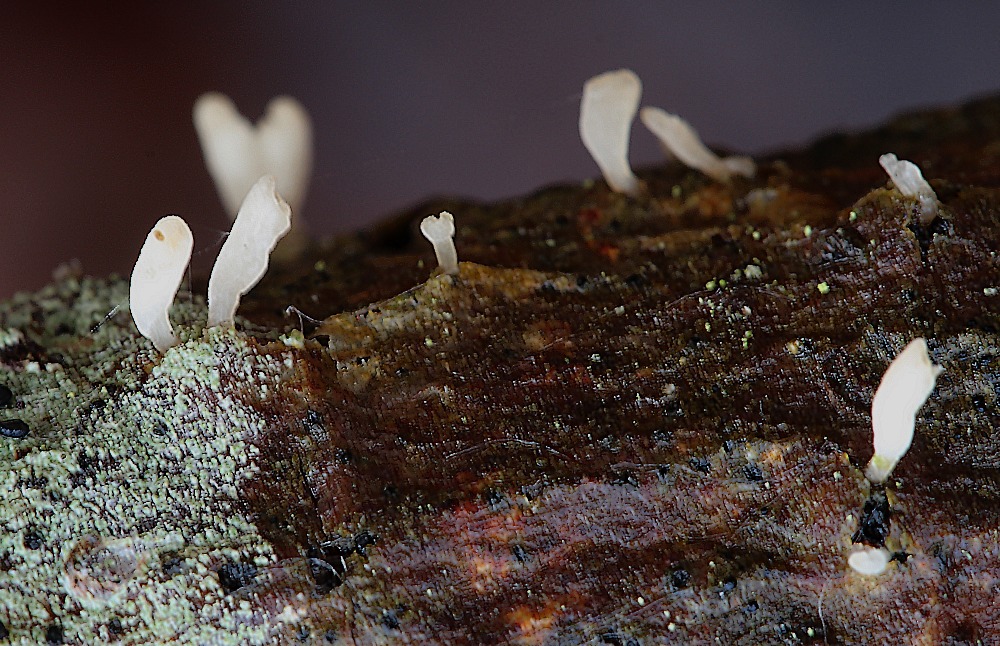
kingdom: Fungi
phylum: Basidiomycota
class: Agaricomycetes
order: Agaricales
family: Typhulaceae
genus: Typhula
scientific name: Typhula spathulata
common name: aske-trådkølle
